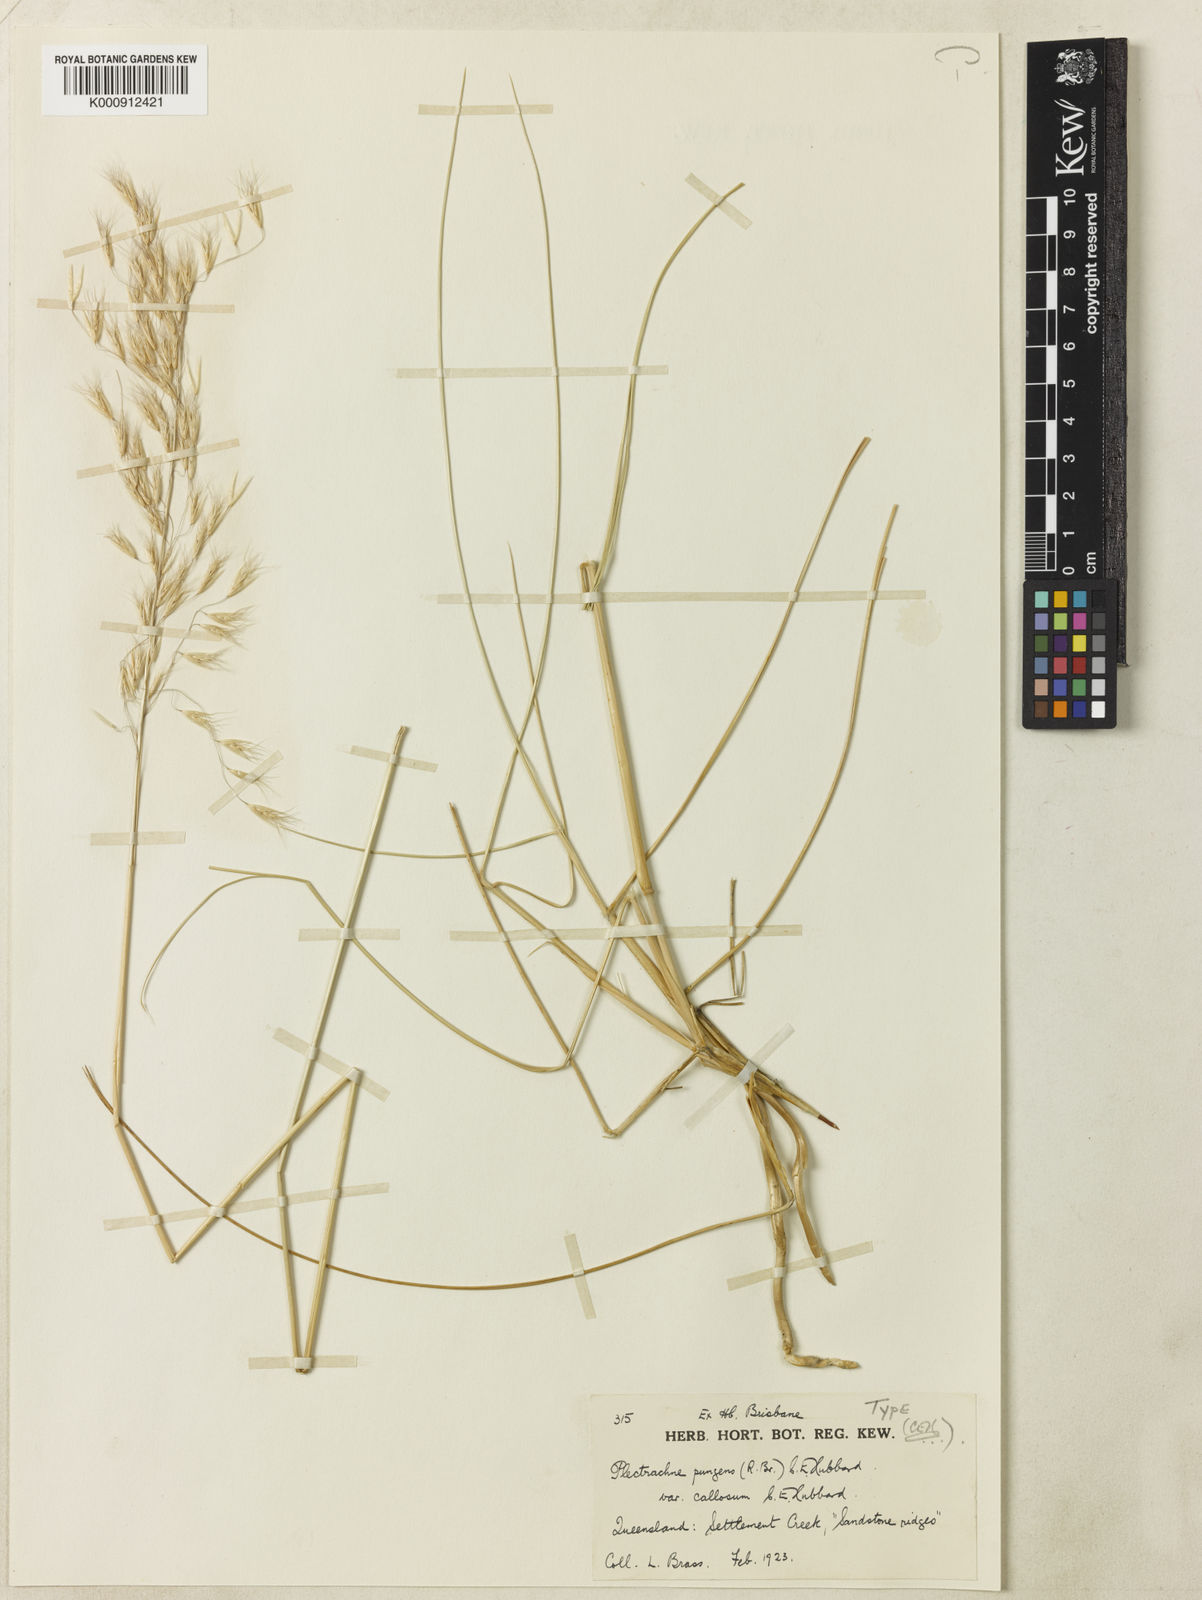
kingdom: Plantae
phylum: Tracheophyta
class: Liliopsida
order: Poales
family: Poaceae
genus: Triodia
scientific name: Triodia bitextura
